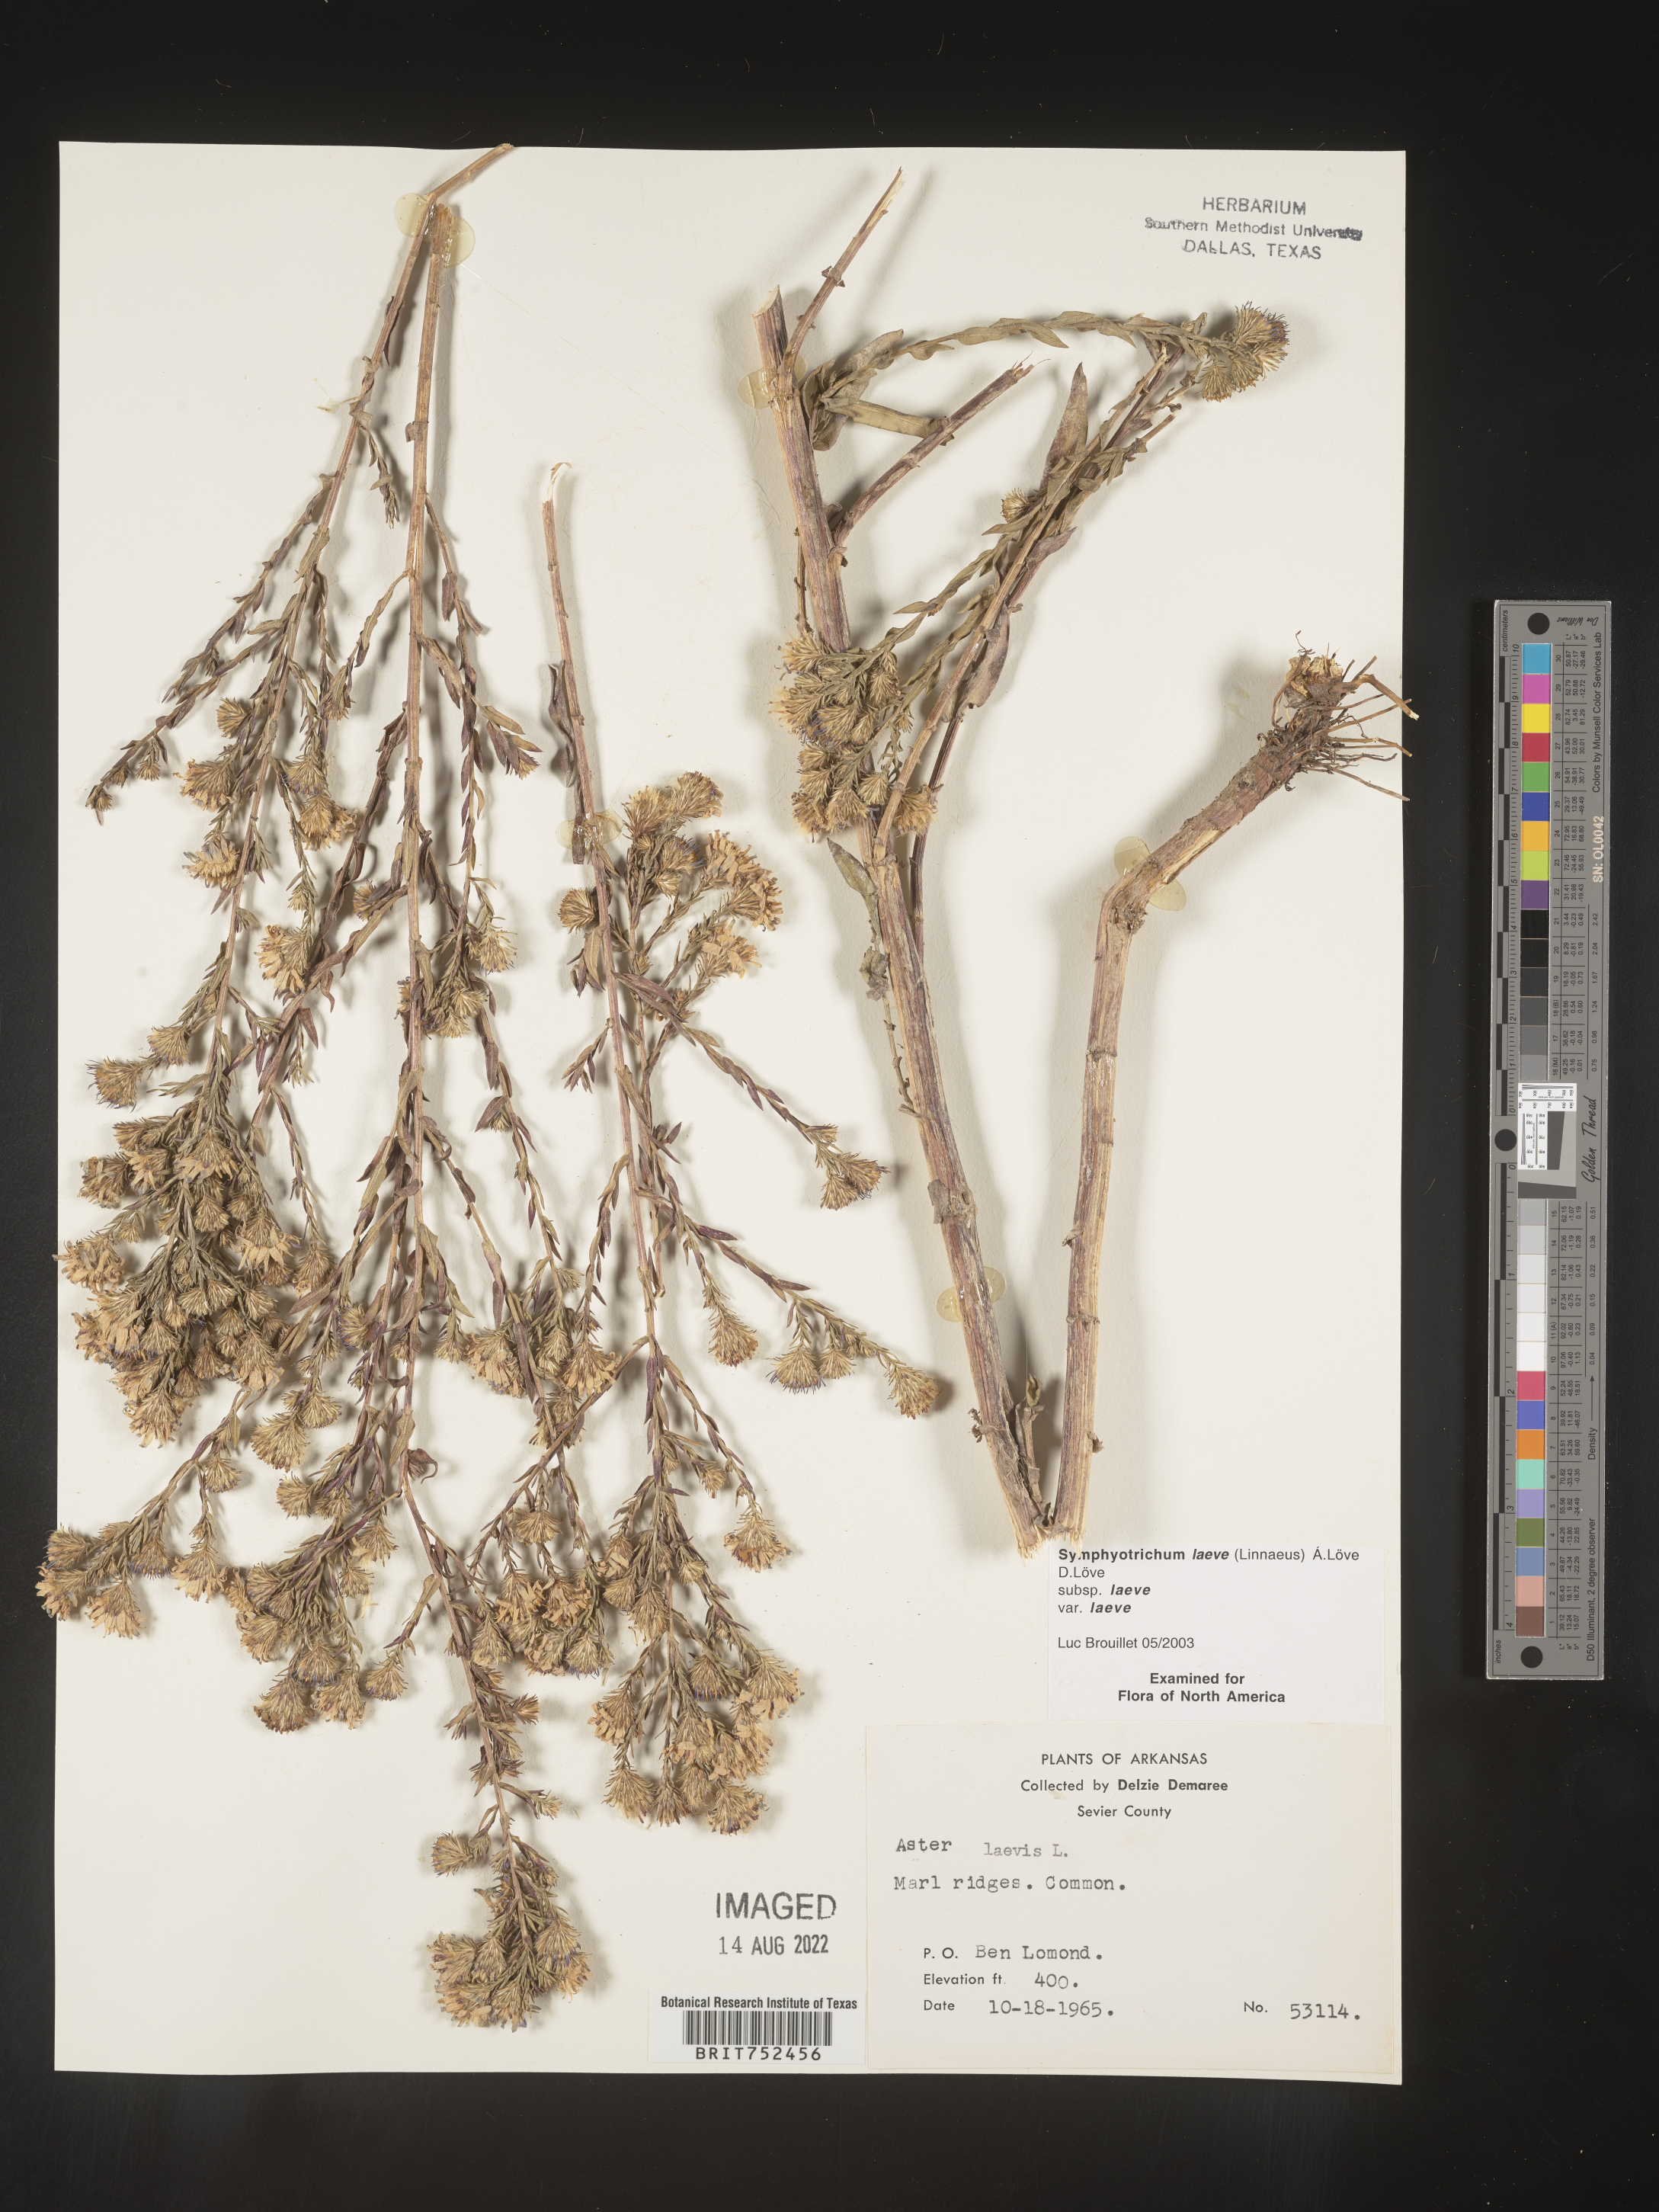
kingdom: Plantae
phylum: Tracheophyta
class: Magnoliopsida
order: Asterales
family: Asteraceae
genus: Symphyotrichum
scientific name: Symphyotrichum laeve
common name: Glaucous aster
